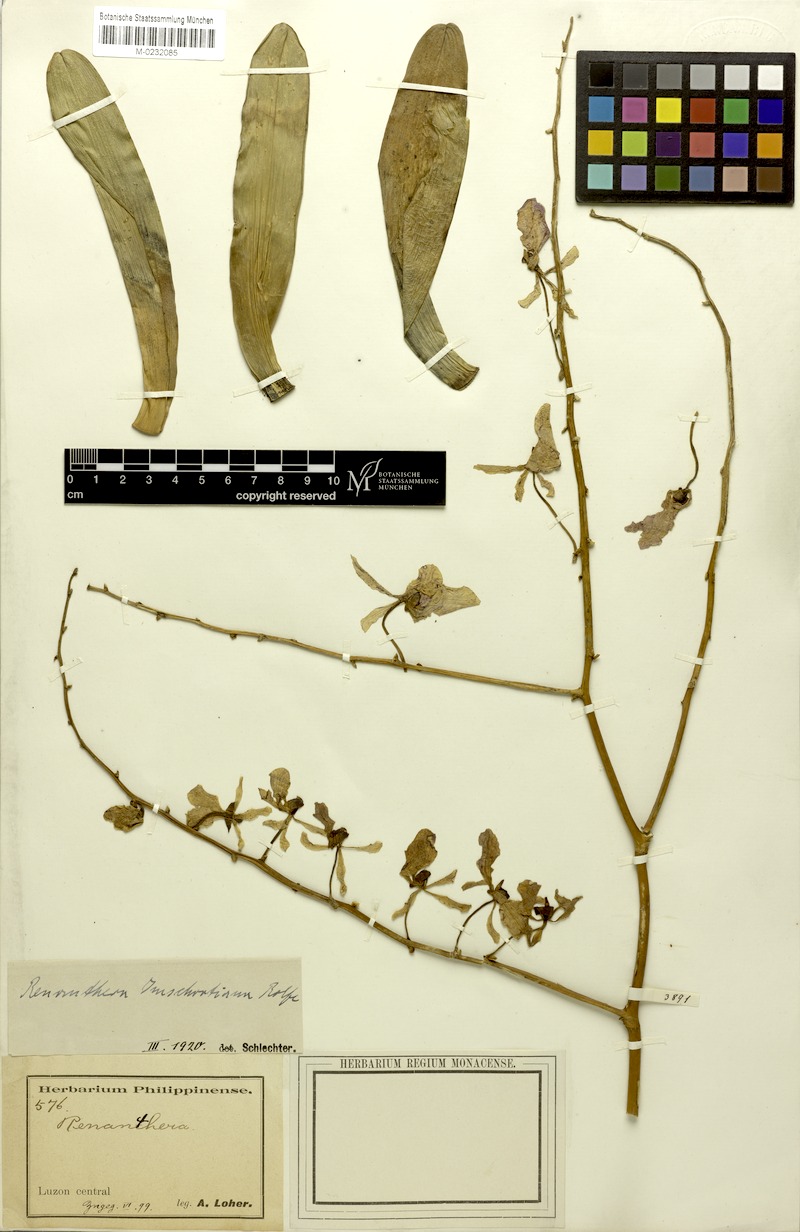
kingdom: Plantae
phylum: Tracheophyta
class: Liliopsida
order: Asparagales
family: Orchidaceae
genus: Renanthera
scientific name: Renanthera imschootiana
